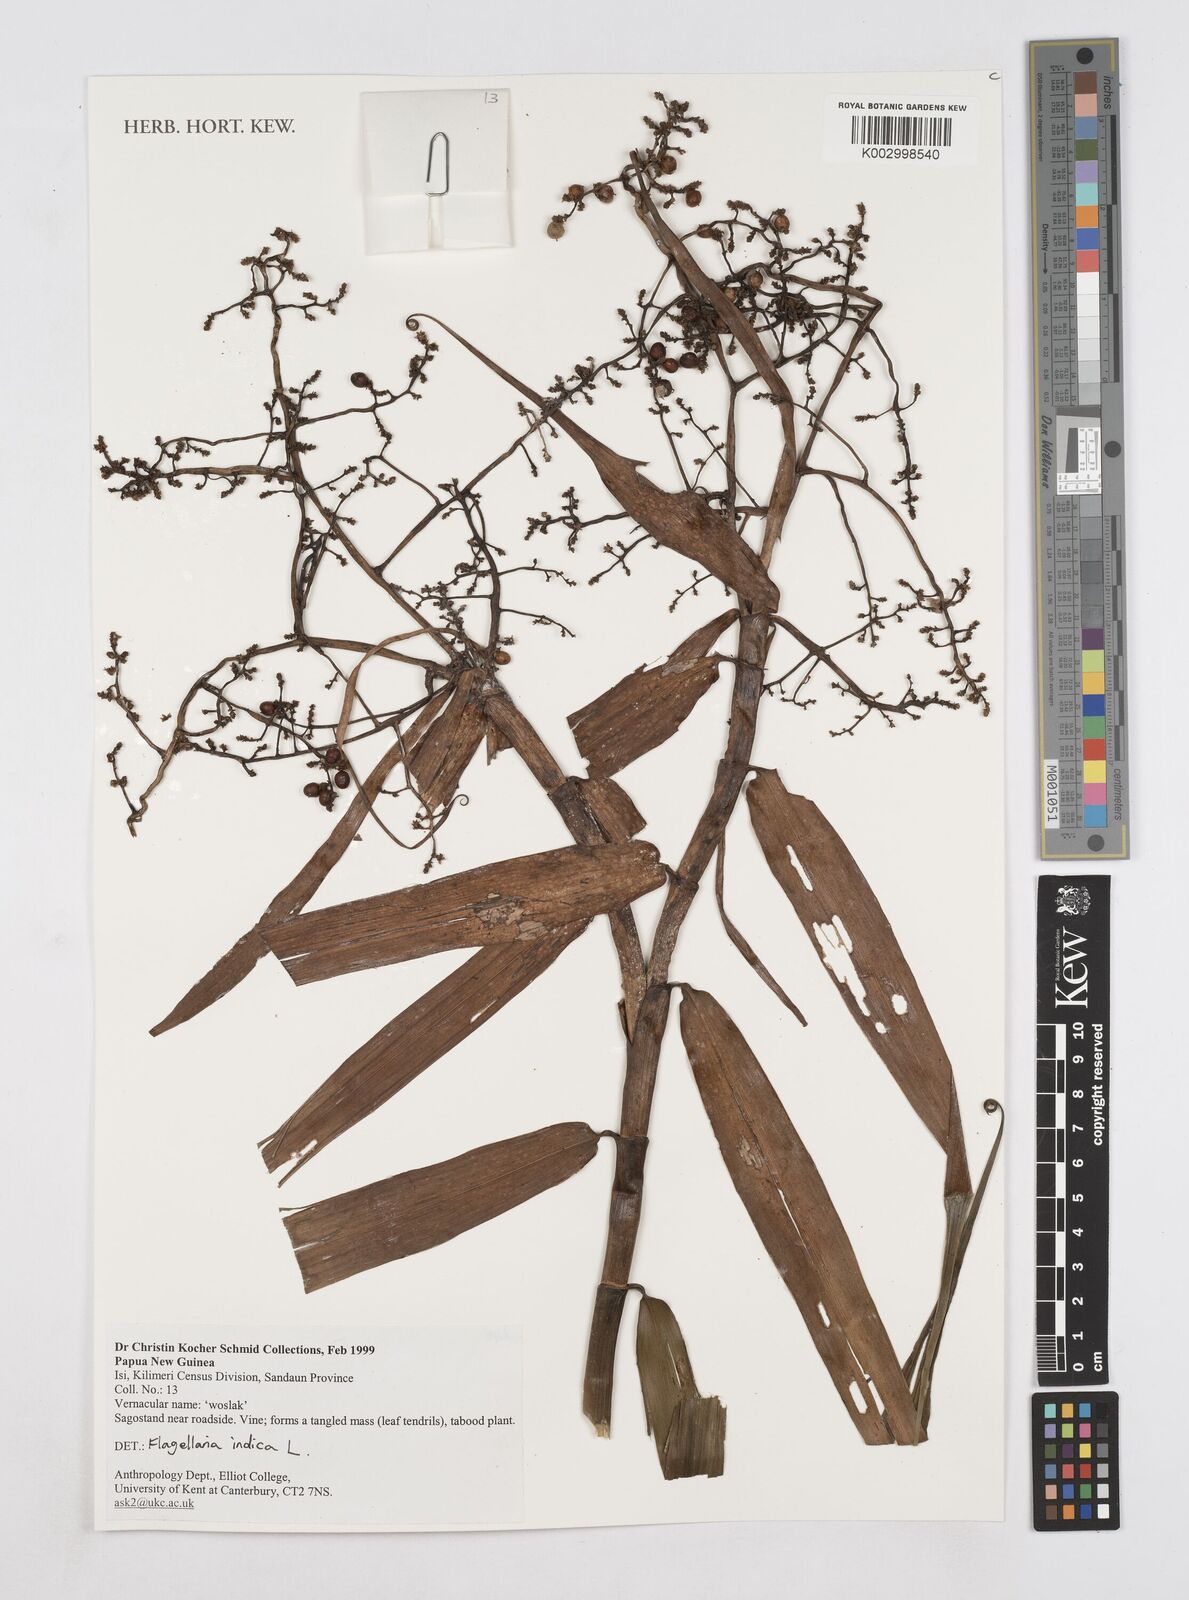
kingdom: Plantae
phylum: Tracheophyta
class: Liliopsida
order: Poales
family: Flagellariaceae
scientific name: Flagellariaceae
